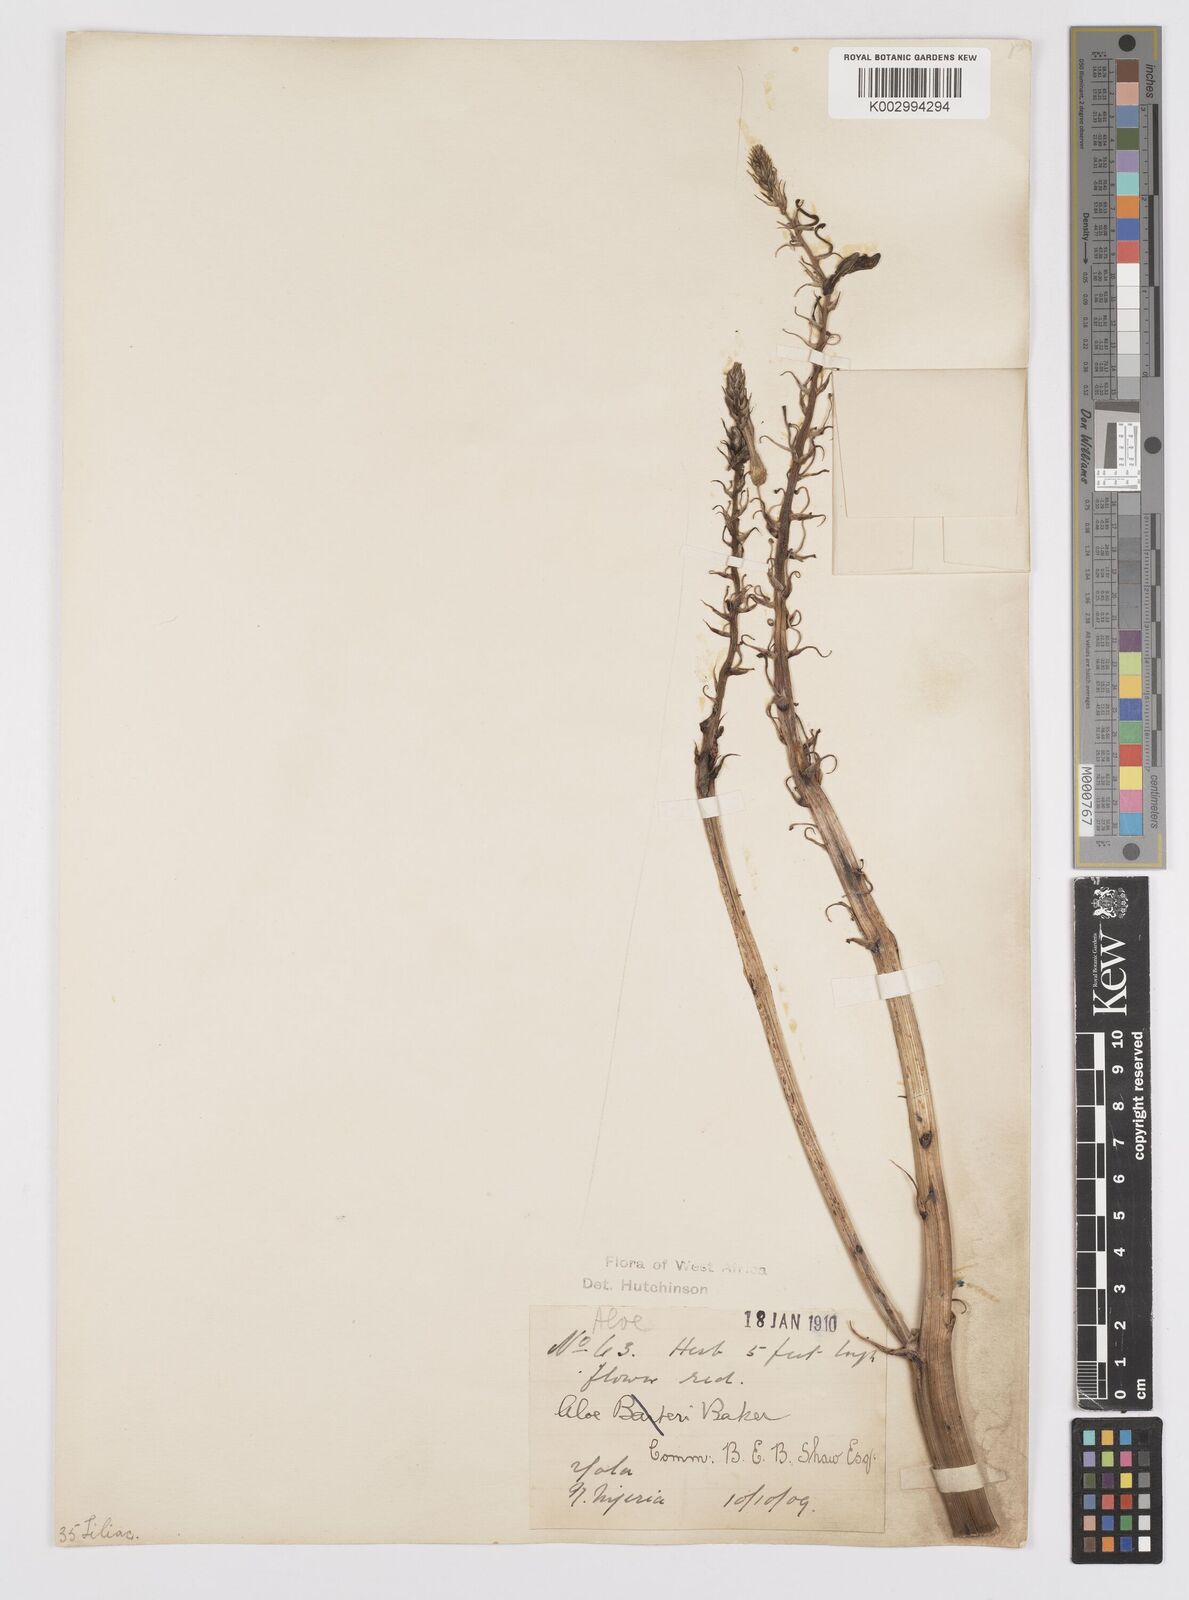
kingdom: Plantae
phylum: Tracheophyta
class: Liliopsida
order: Asparagales
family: Asphodelaceae
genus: Aloe
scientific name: Aloe
